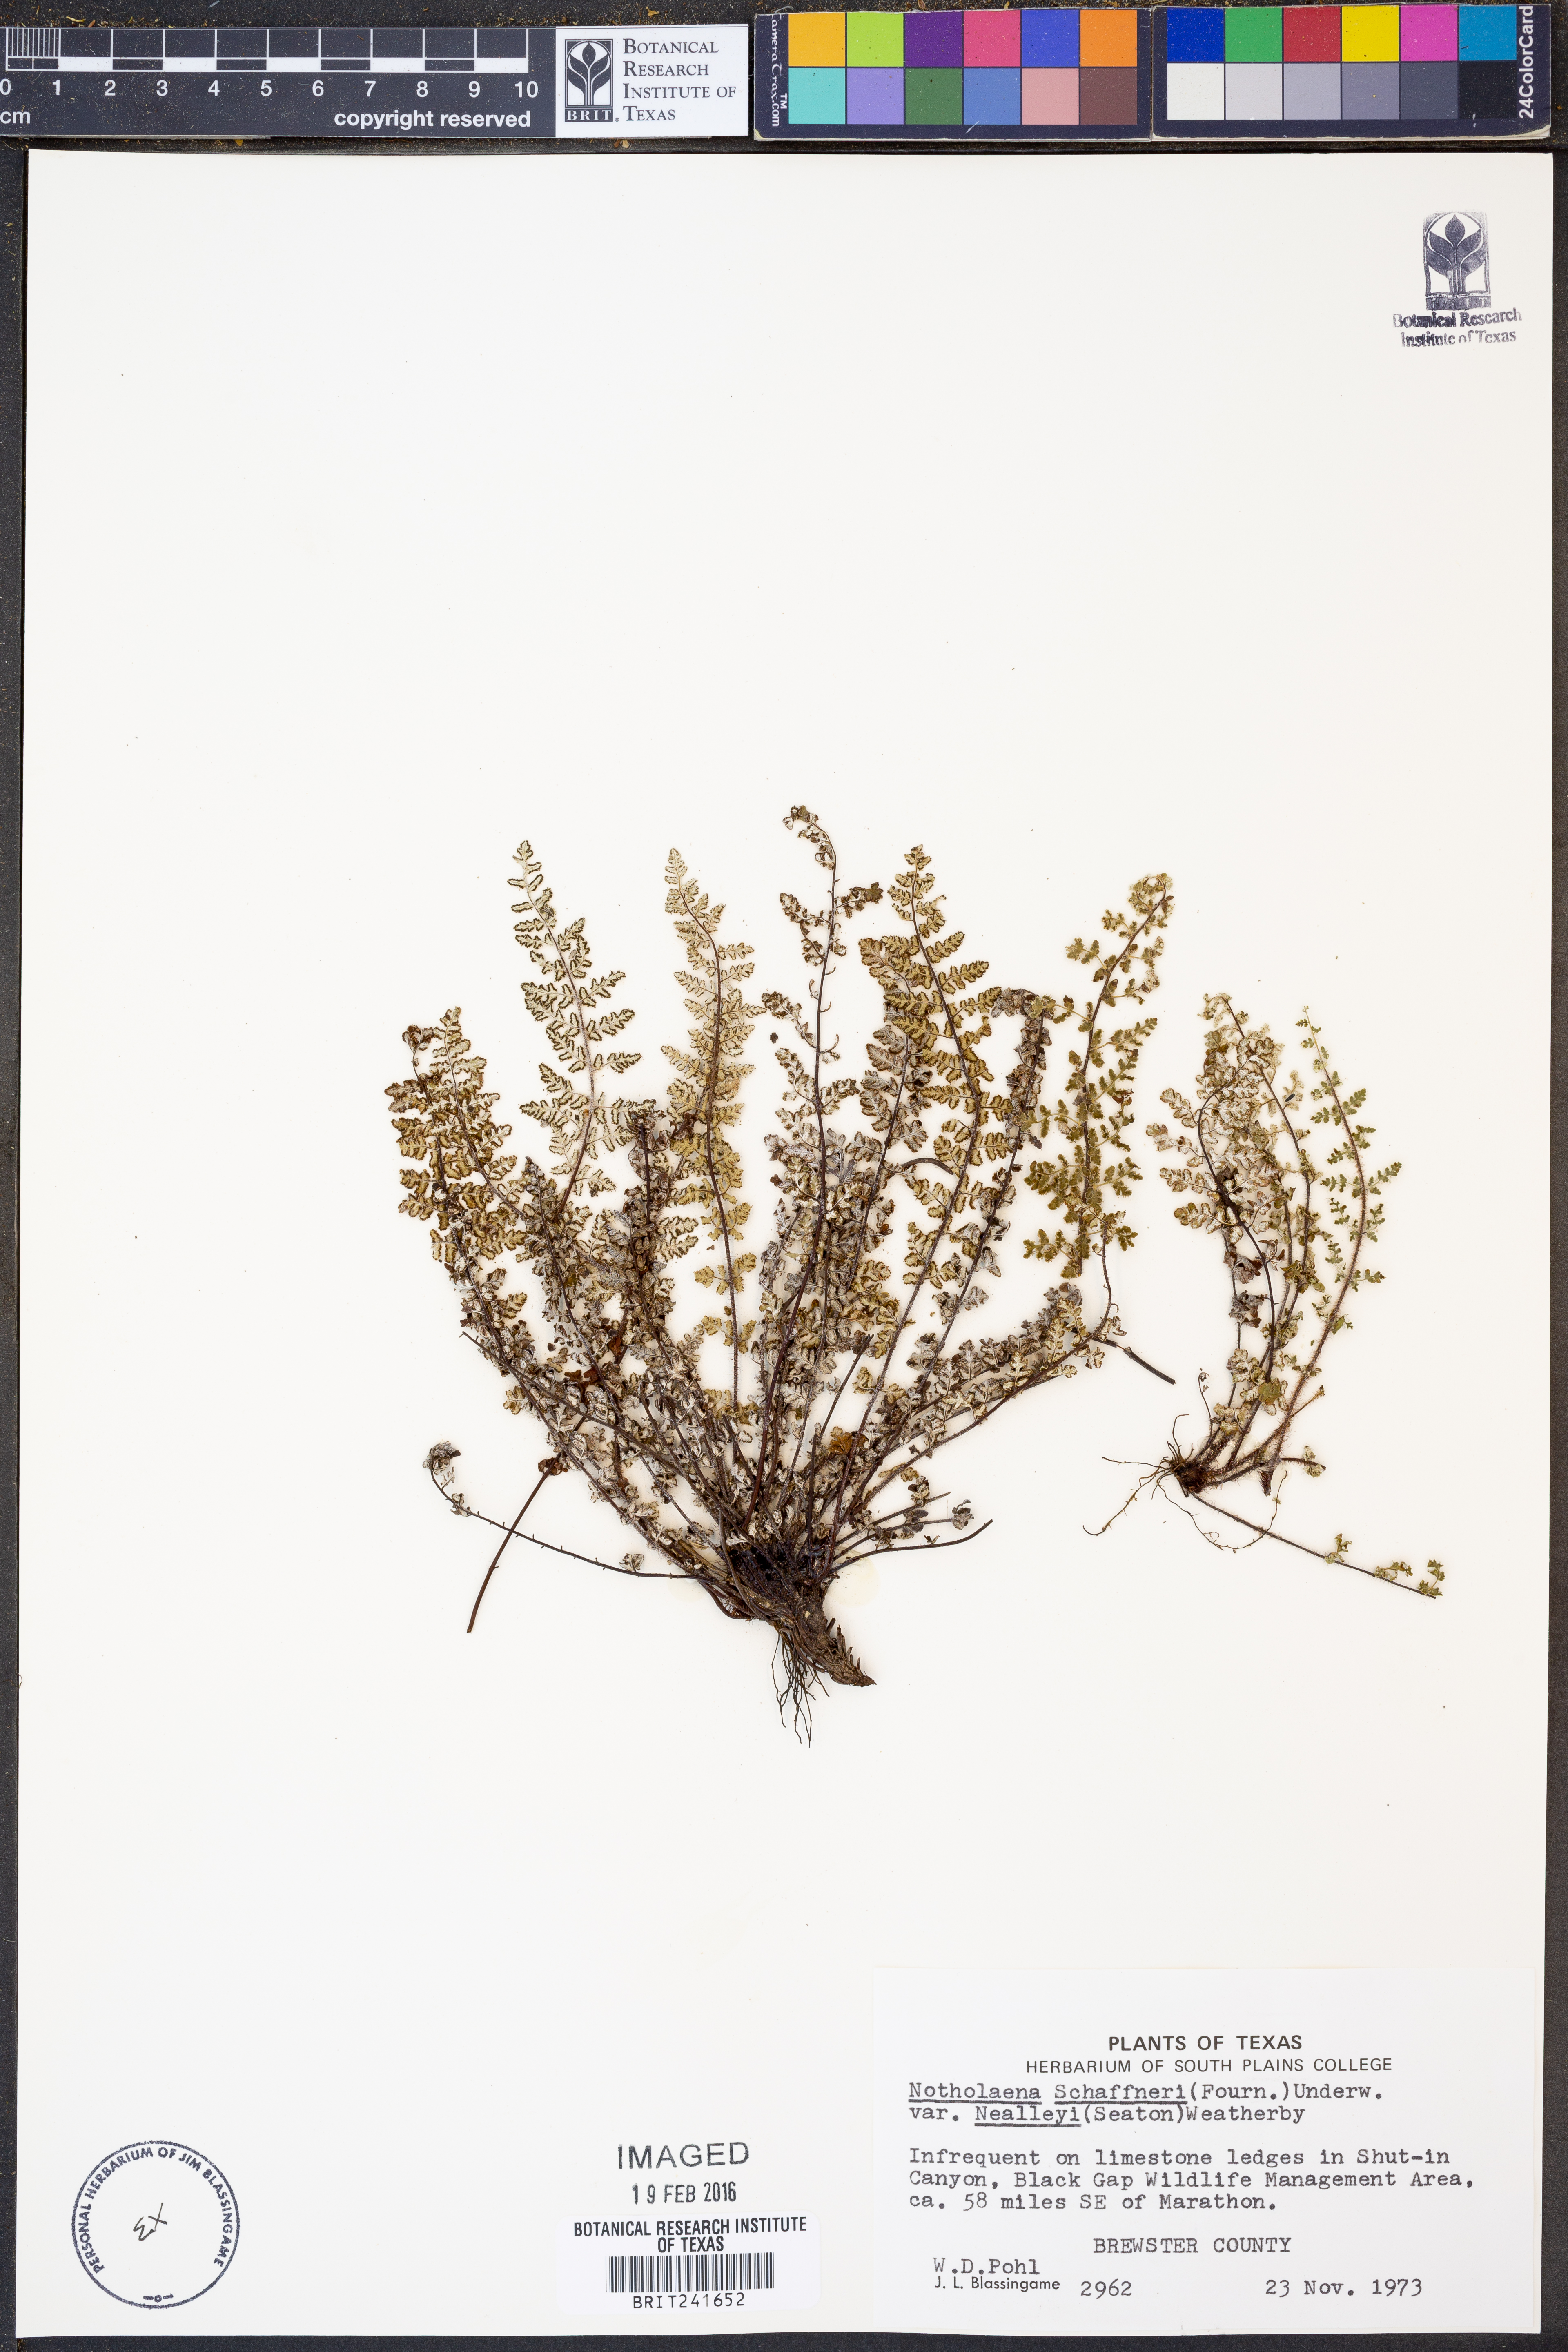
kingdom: Plantae
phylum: Tracheophyta
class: Polypodiopsida
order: Polypodiales
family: Pteridaceae
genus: Notholaena
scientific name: Notholaena schaffneri
